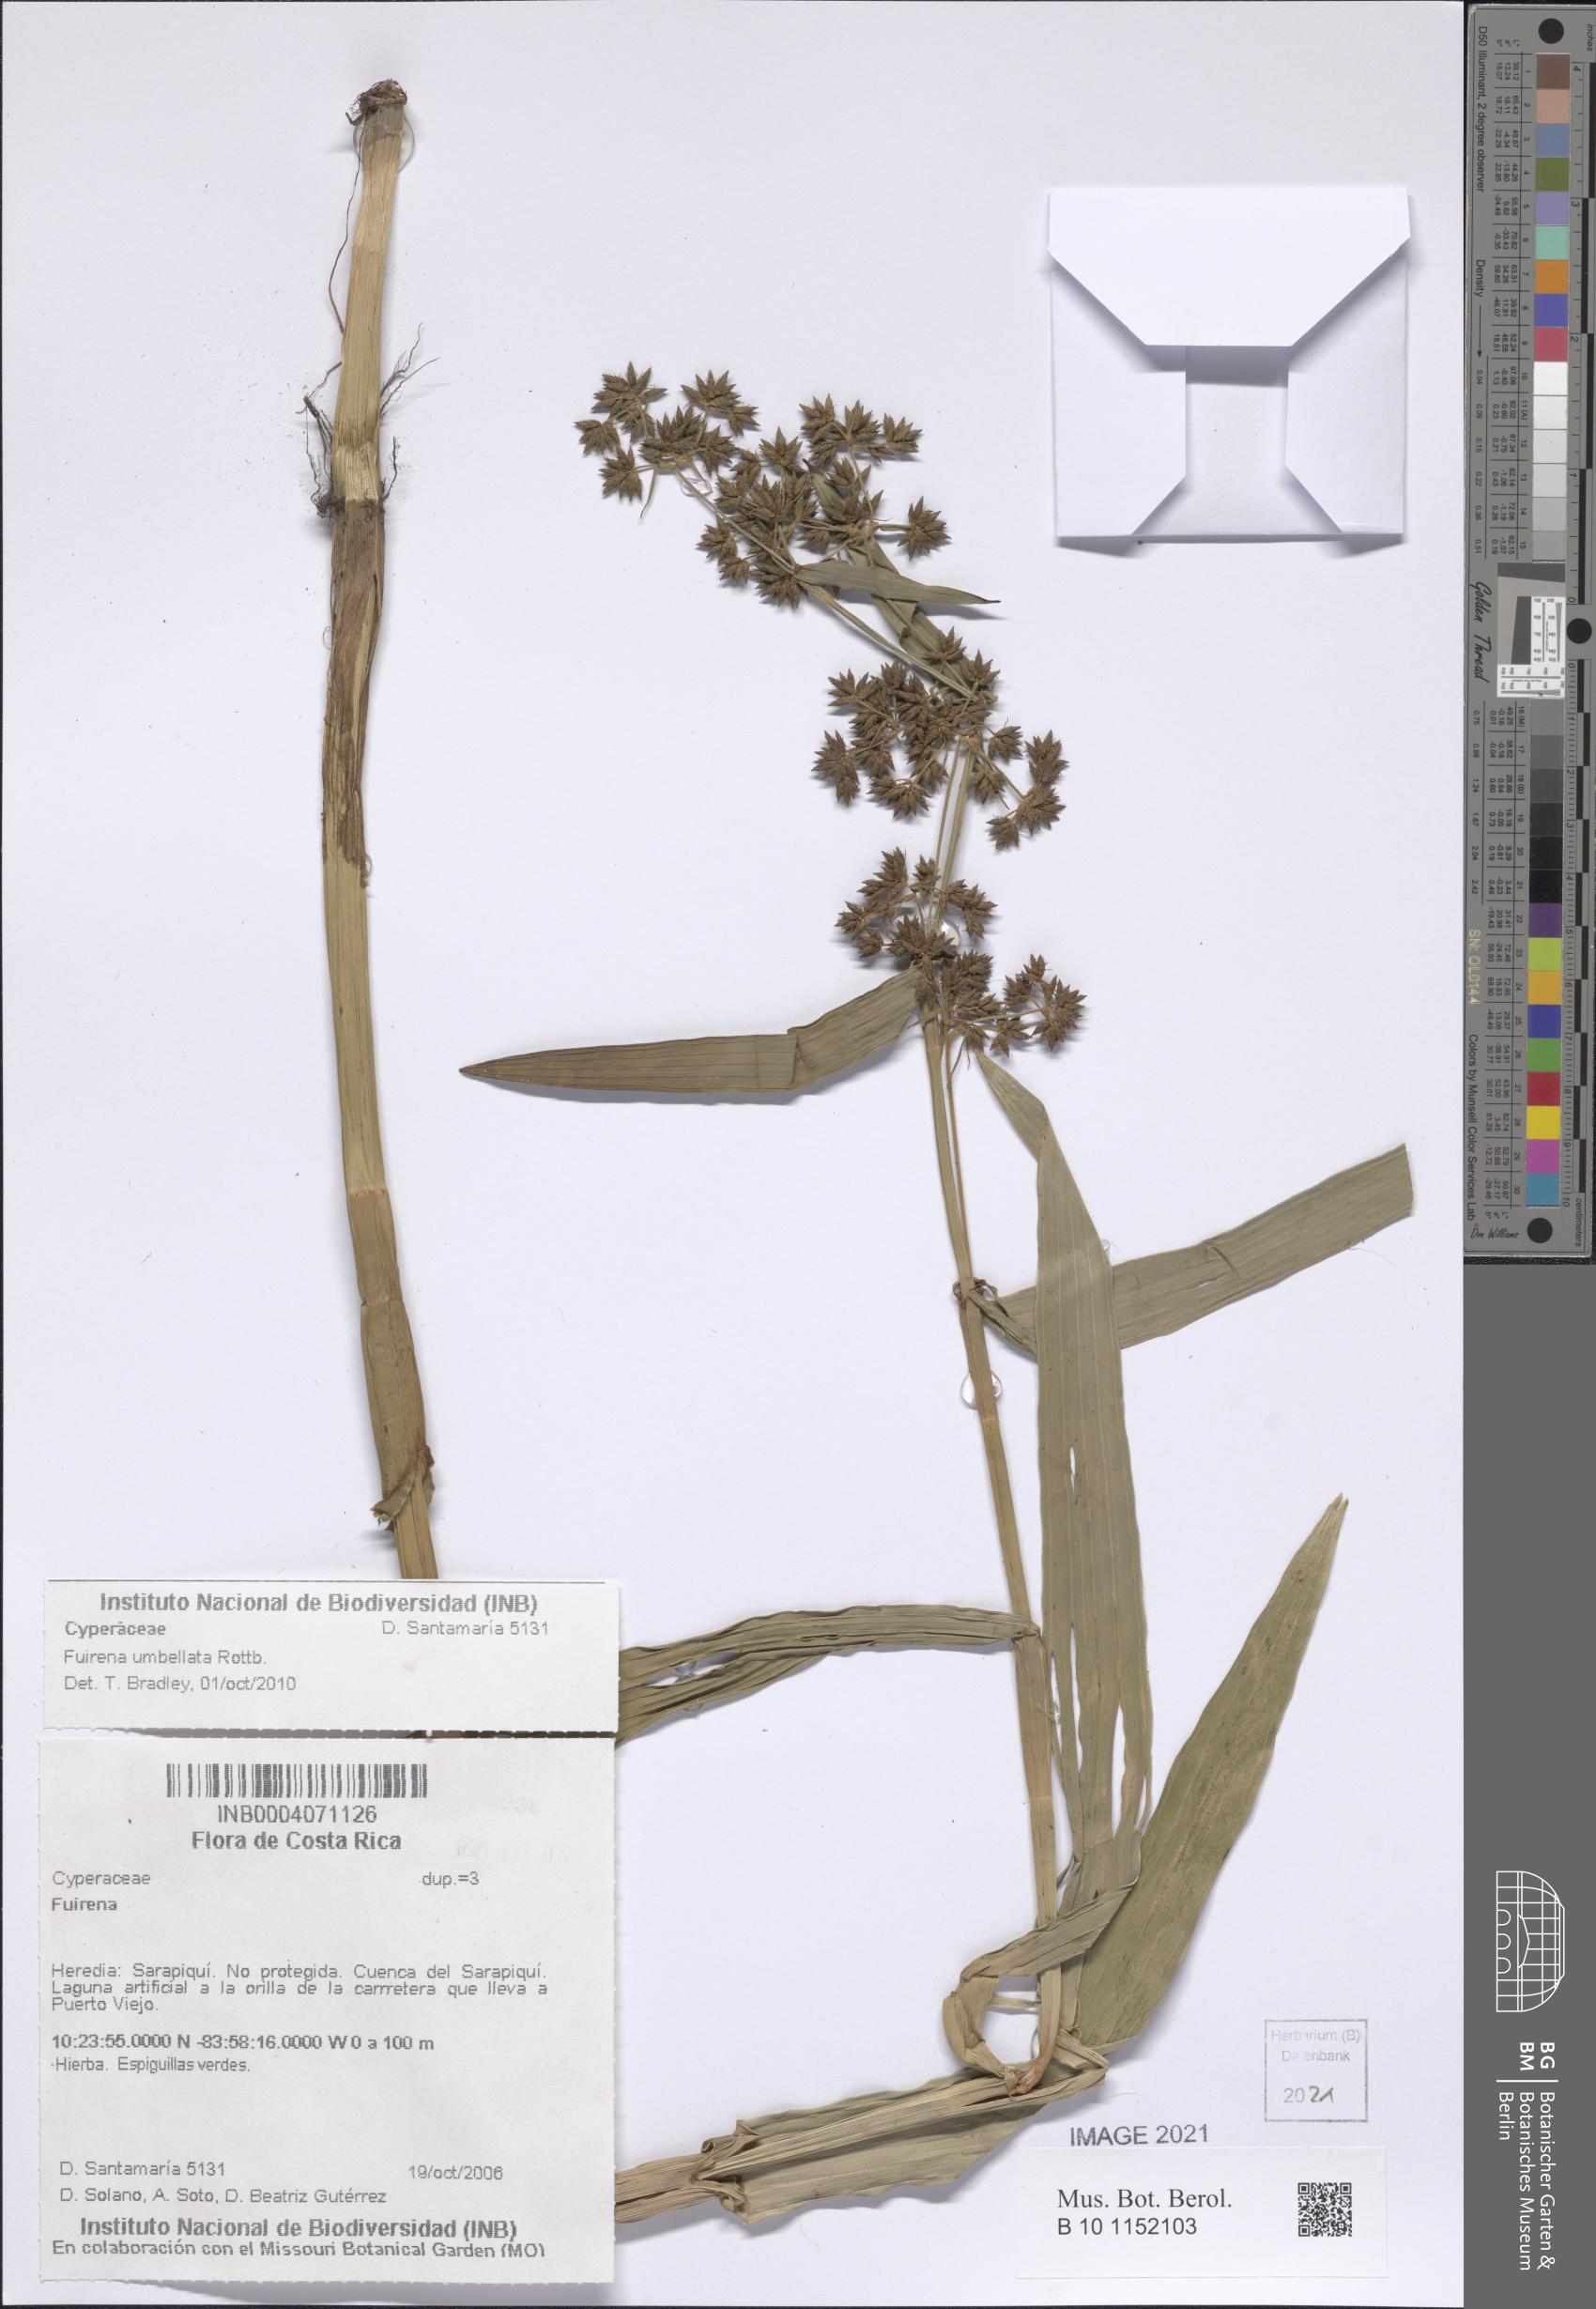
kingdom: Plantae
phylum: Tracheophyta
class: Liliopsida
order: Poales
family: Cyperaceae
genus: Fuirena
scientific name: Fuirena umbellata
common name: Yefen
